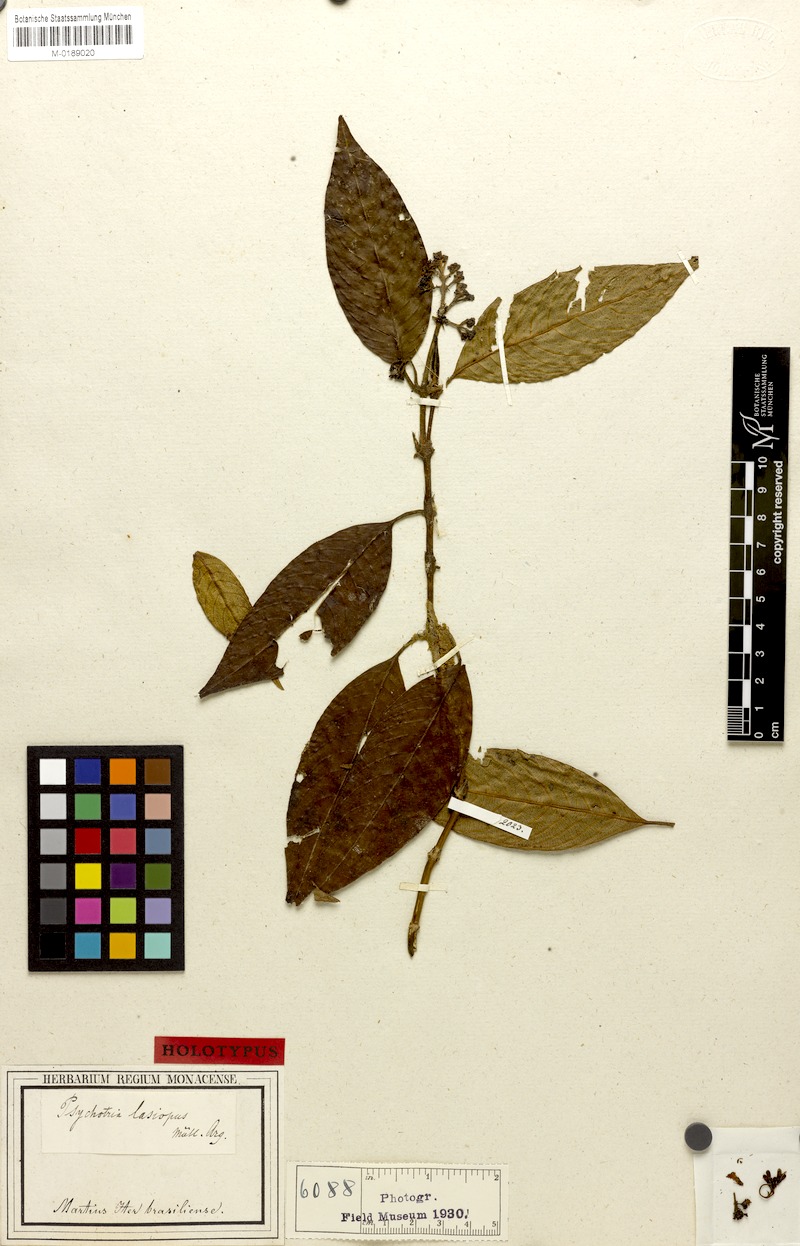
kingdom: Plantae
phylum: Tracheophyta
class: Magnoliopsida
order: Gentianales
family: Rubiaceae
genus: Psychotria
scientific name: Psychotria lasiopus
